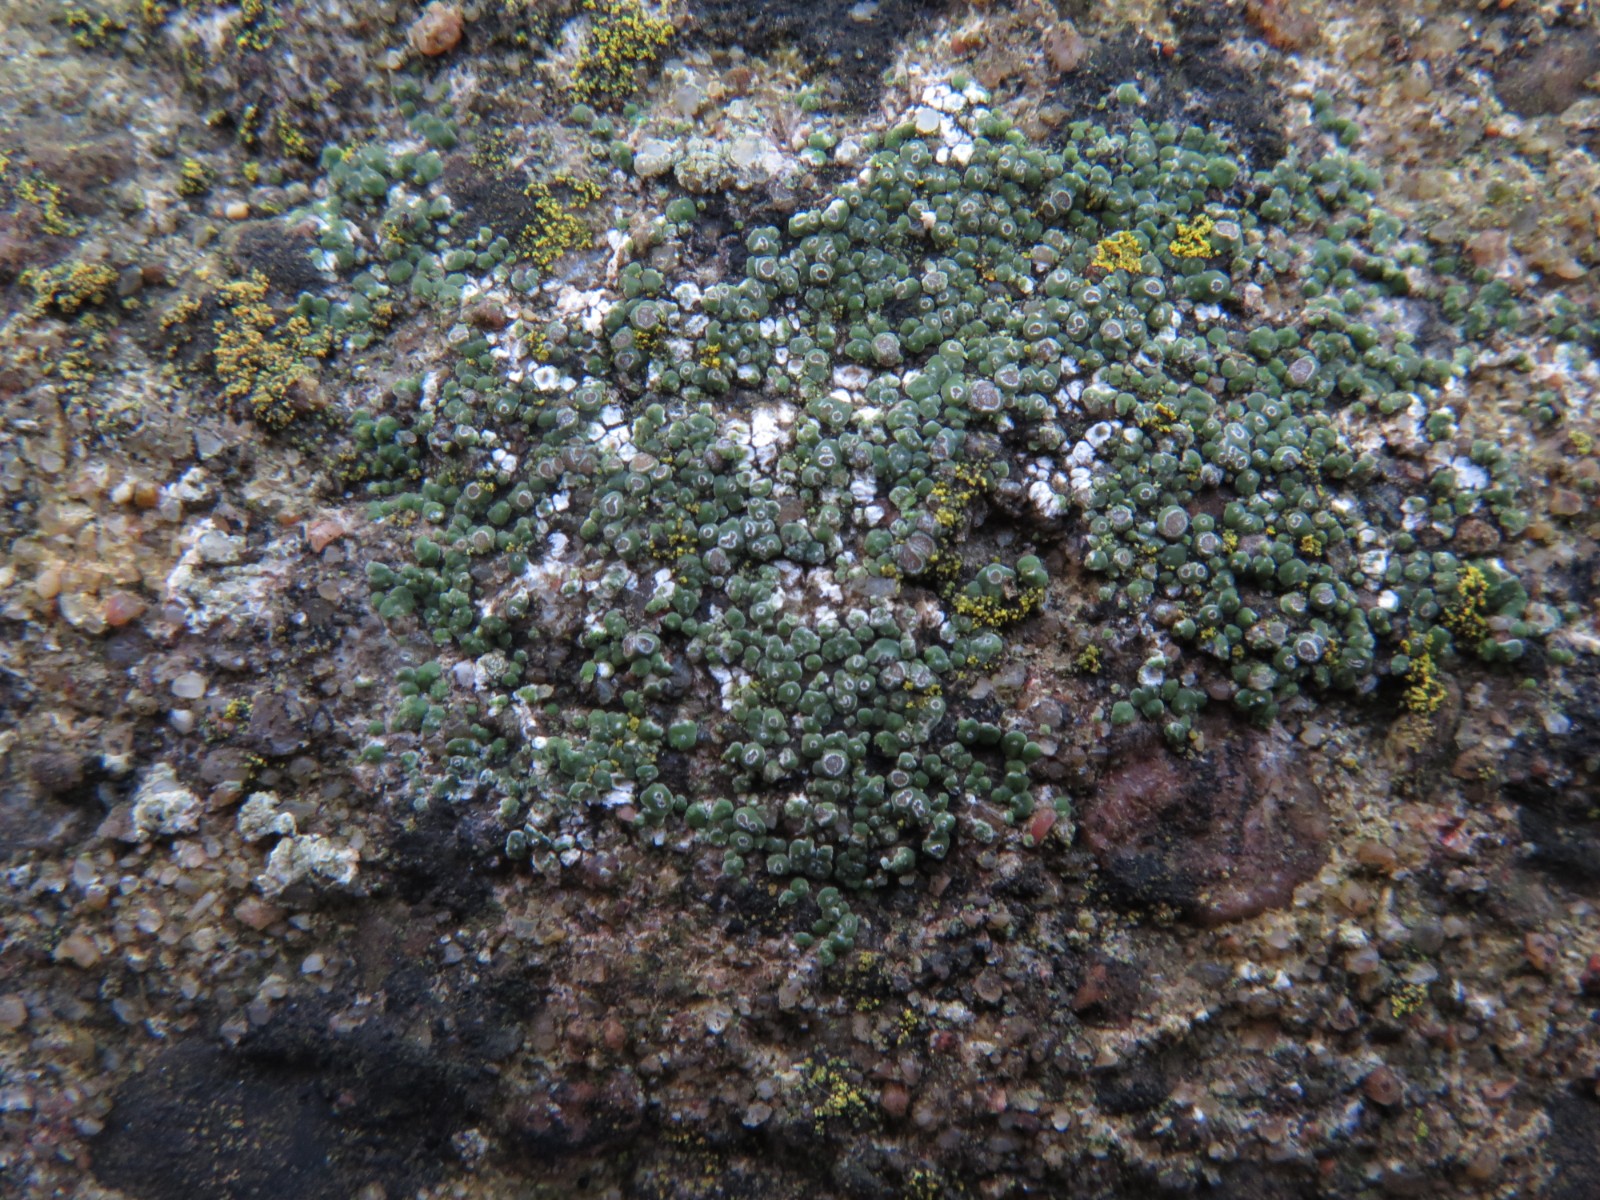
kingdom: Fungi
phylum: Ascomycota
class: Lecanoromycetes
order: Pertusariales
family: Megasporaceae
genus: Circinaria
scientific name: Circinaria contorta
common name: indviklet hulskivelav
